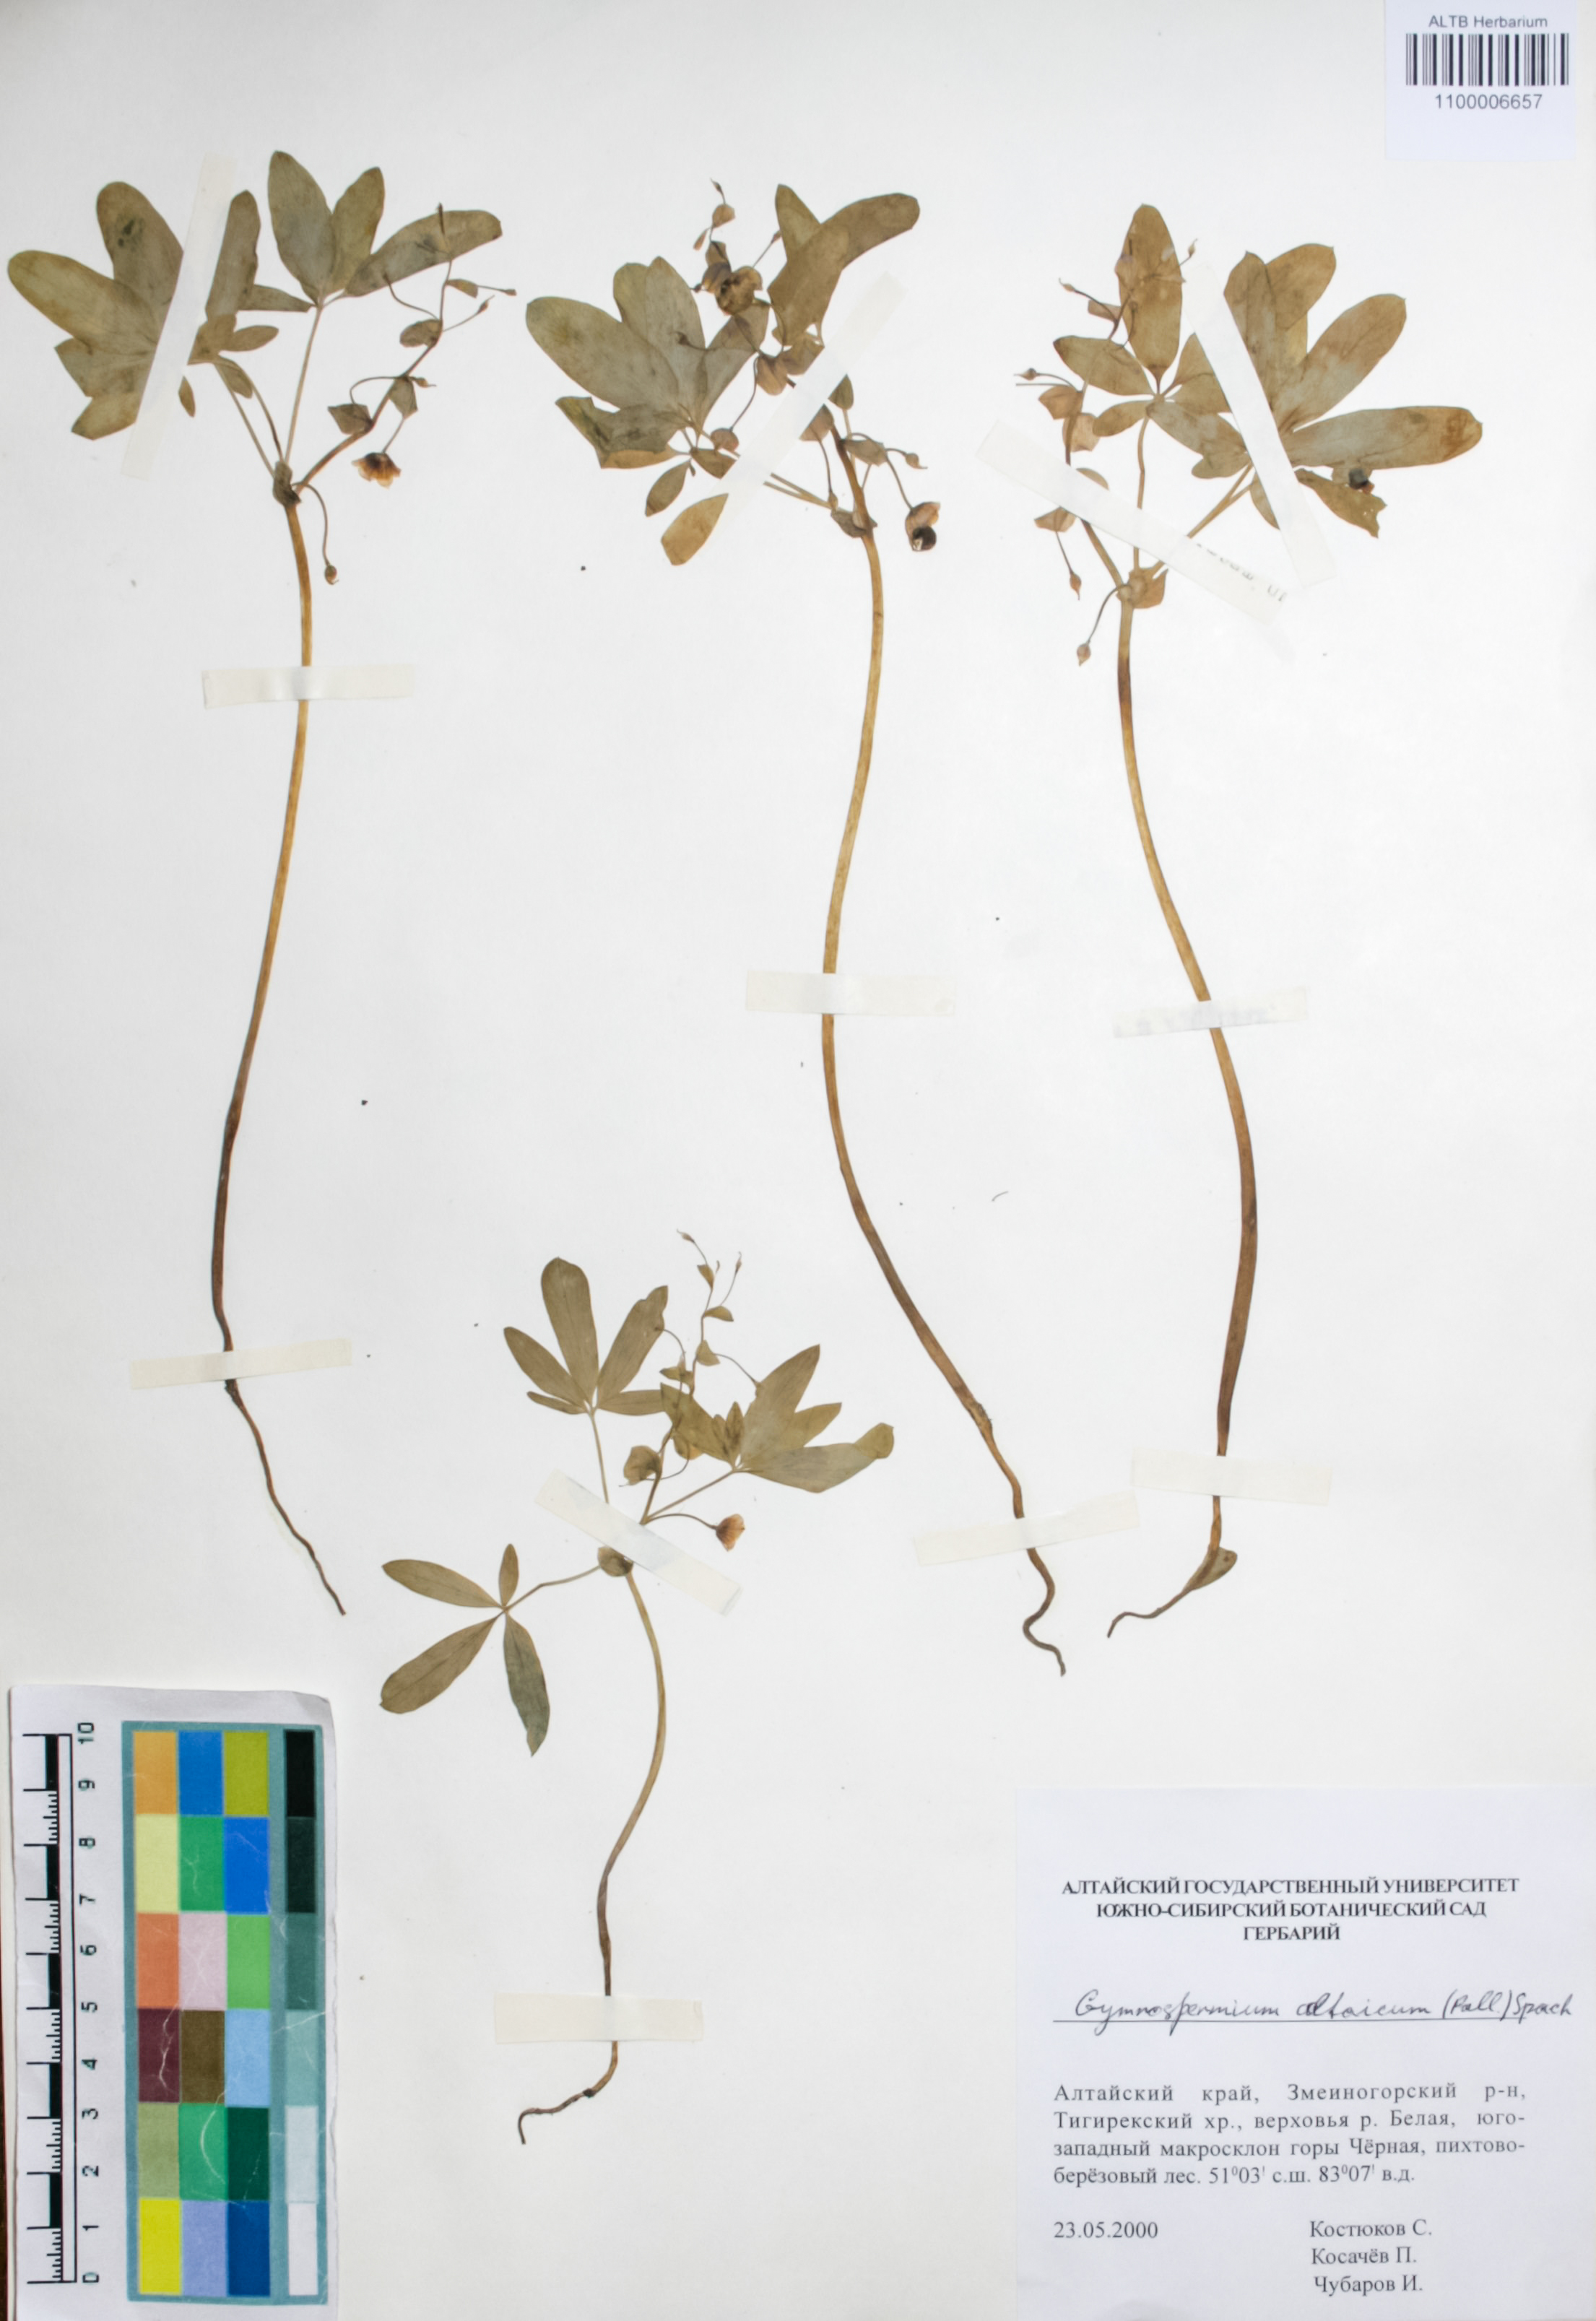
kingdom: Plantae
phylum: Tracheophyta
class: Magnoliopsida
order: Ranunculales
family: Berberidaceae
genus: Gymnospermium
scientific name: Gymnospermium altaicum
